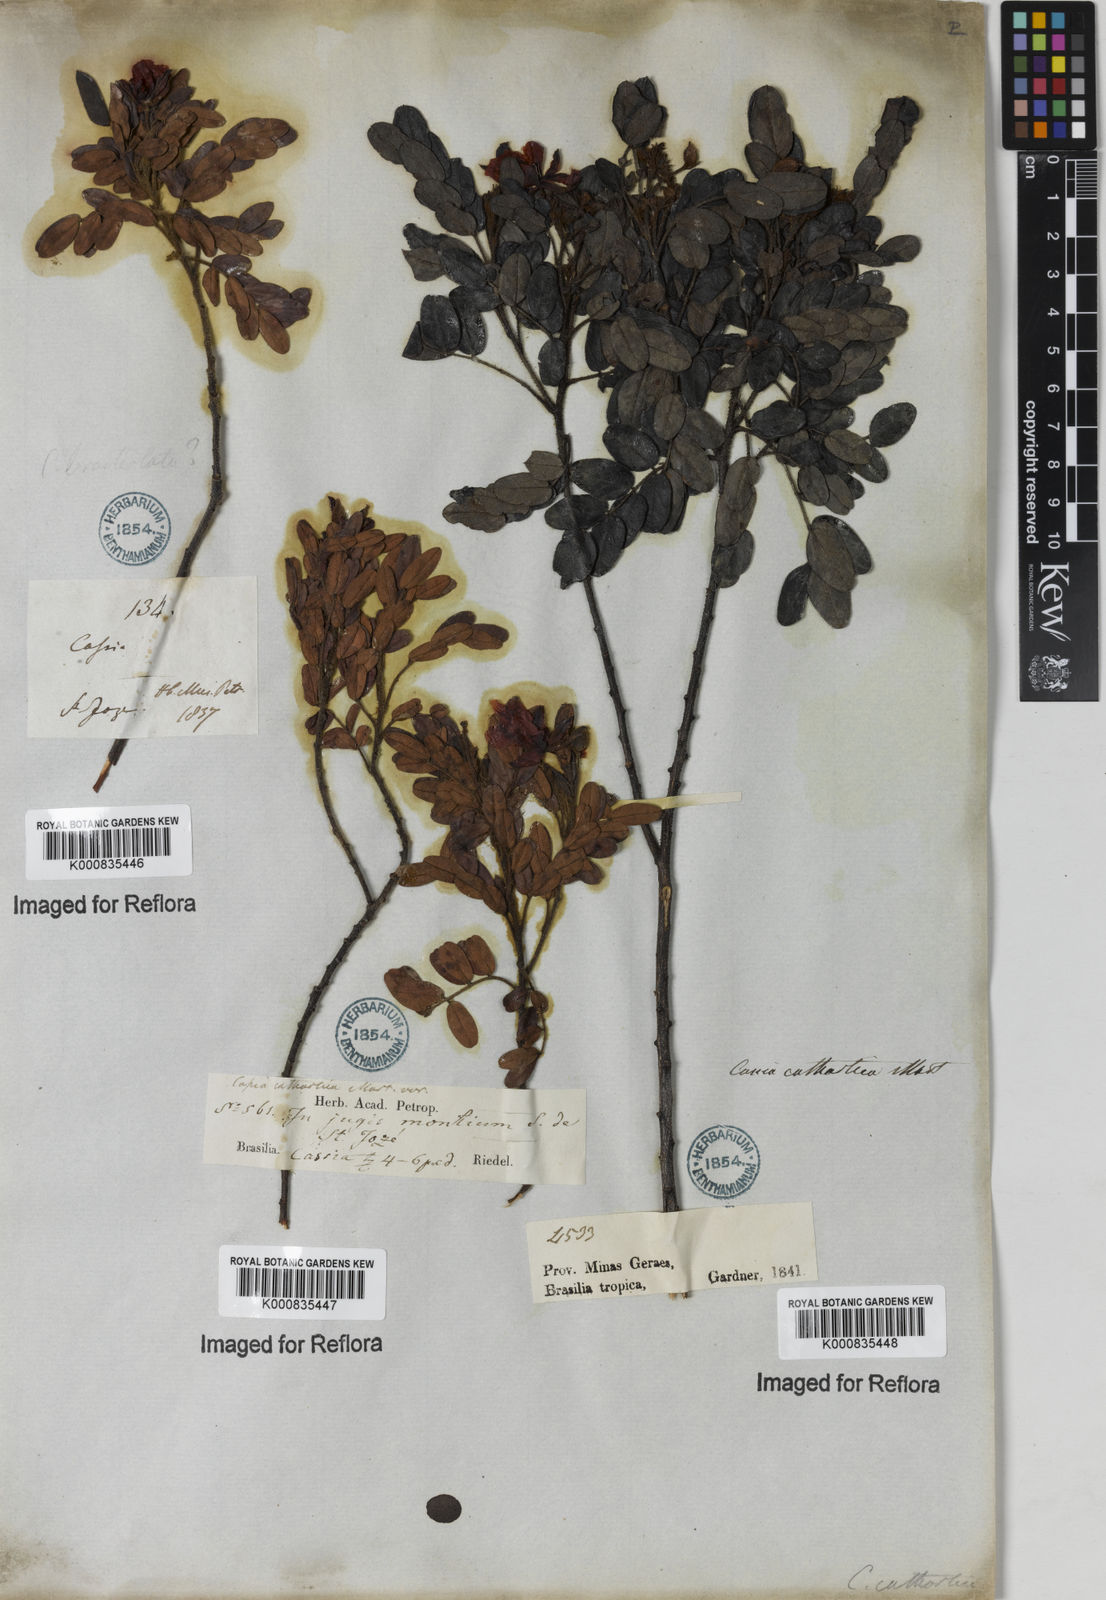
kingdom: Plantae
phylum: Tracheophyta
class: Magnoliopsida
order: Fabales
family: Fabaceae
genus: Chamaecrista
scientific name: Chamaecrista cathartica
